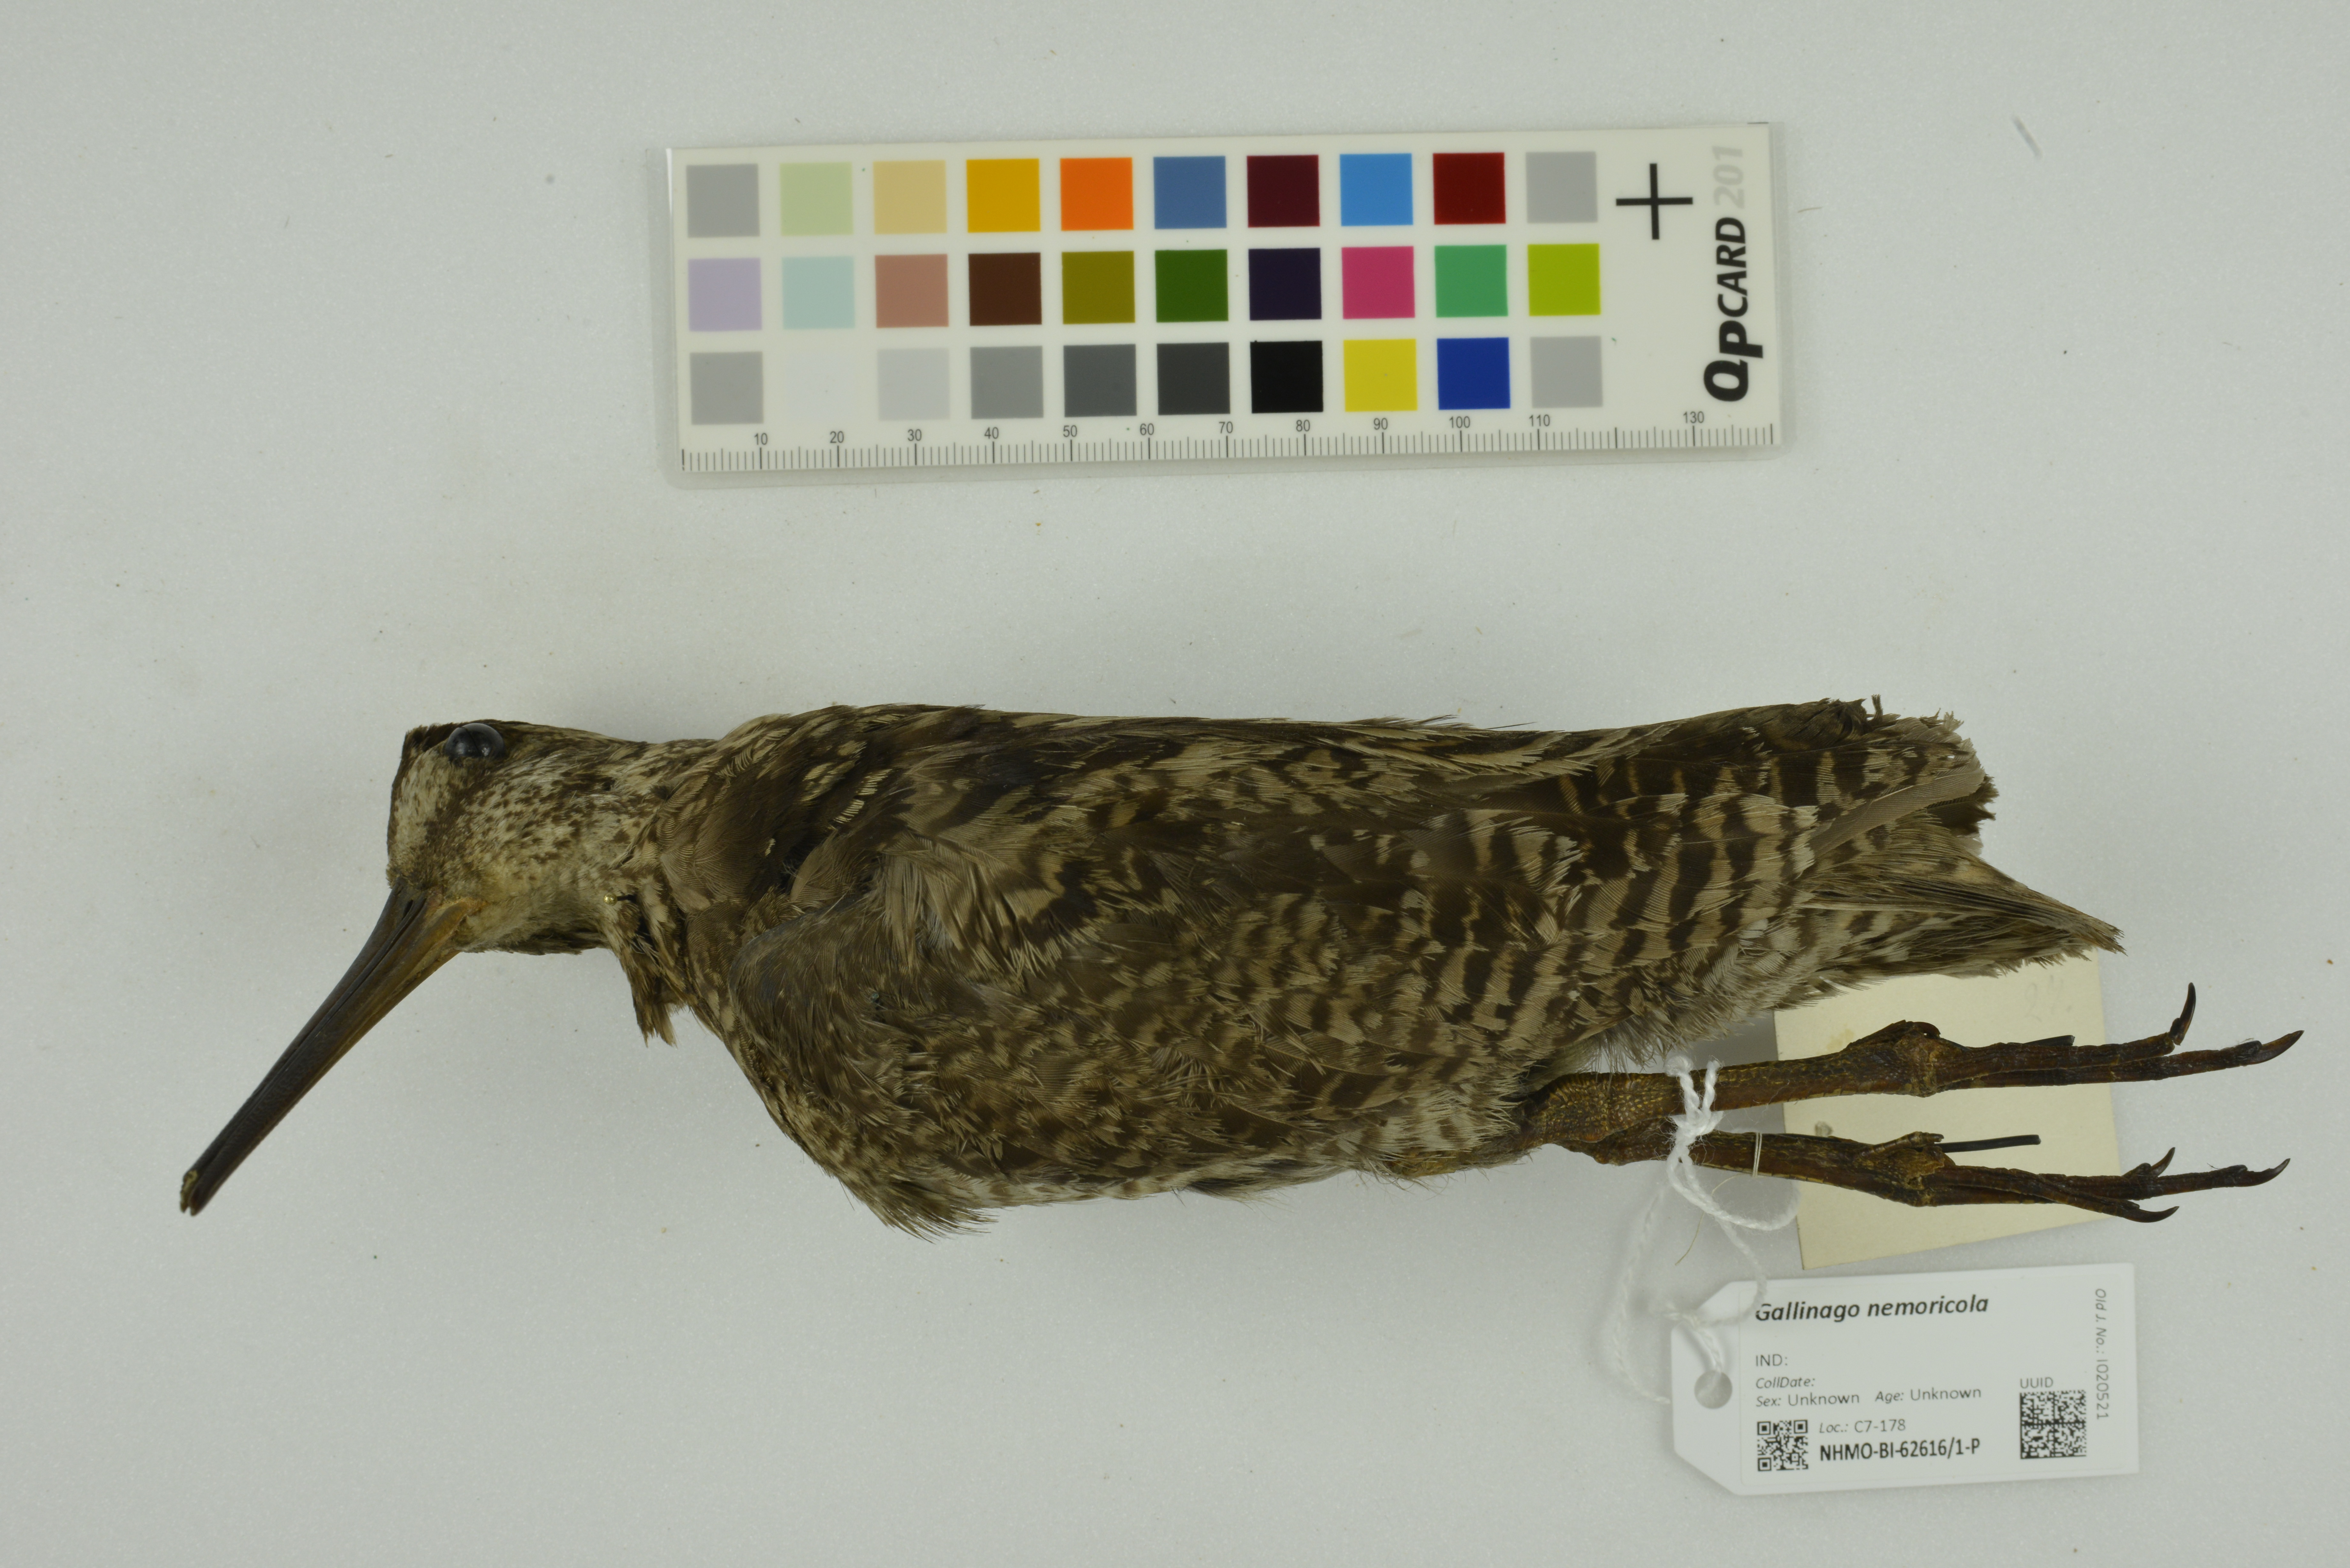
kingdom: Animalia
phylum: Chordata
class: Aves
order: Charadriiformes
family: Scolopacidae
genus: Gallinago
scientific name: Gallinago nemoricola
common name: Wood snipe
